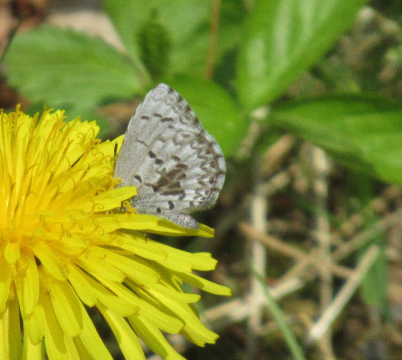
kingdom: Animalia
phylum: Arthropoda
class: Insecta
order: Lepidoptera
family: Lycaenidae
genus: Celastrina
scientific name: Celastrina lucia
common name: Northern Spring Azure
